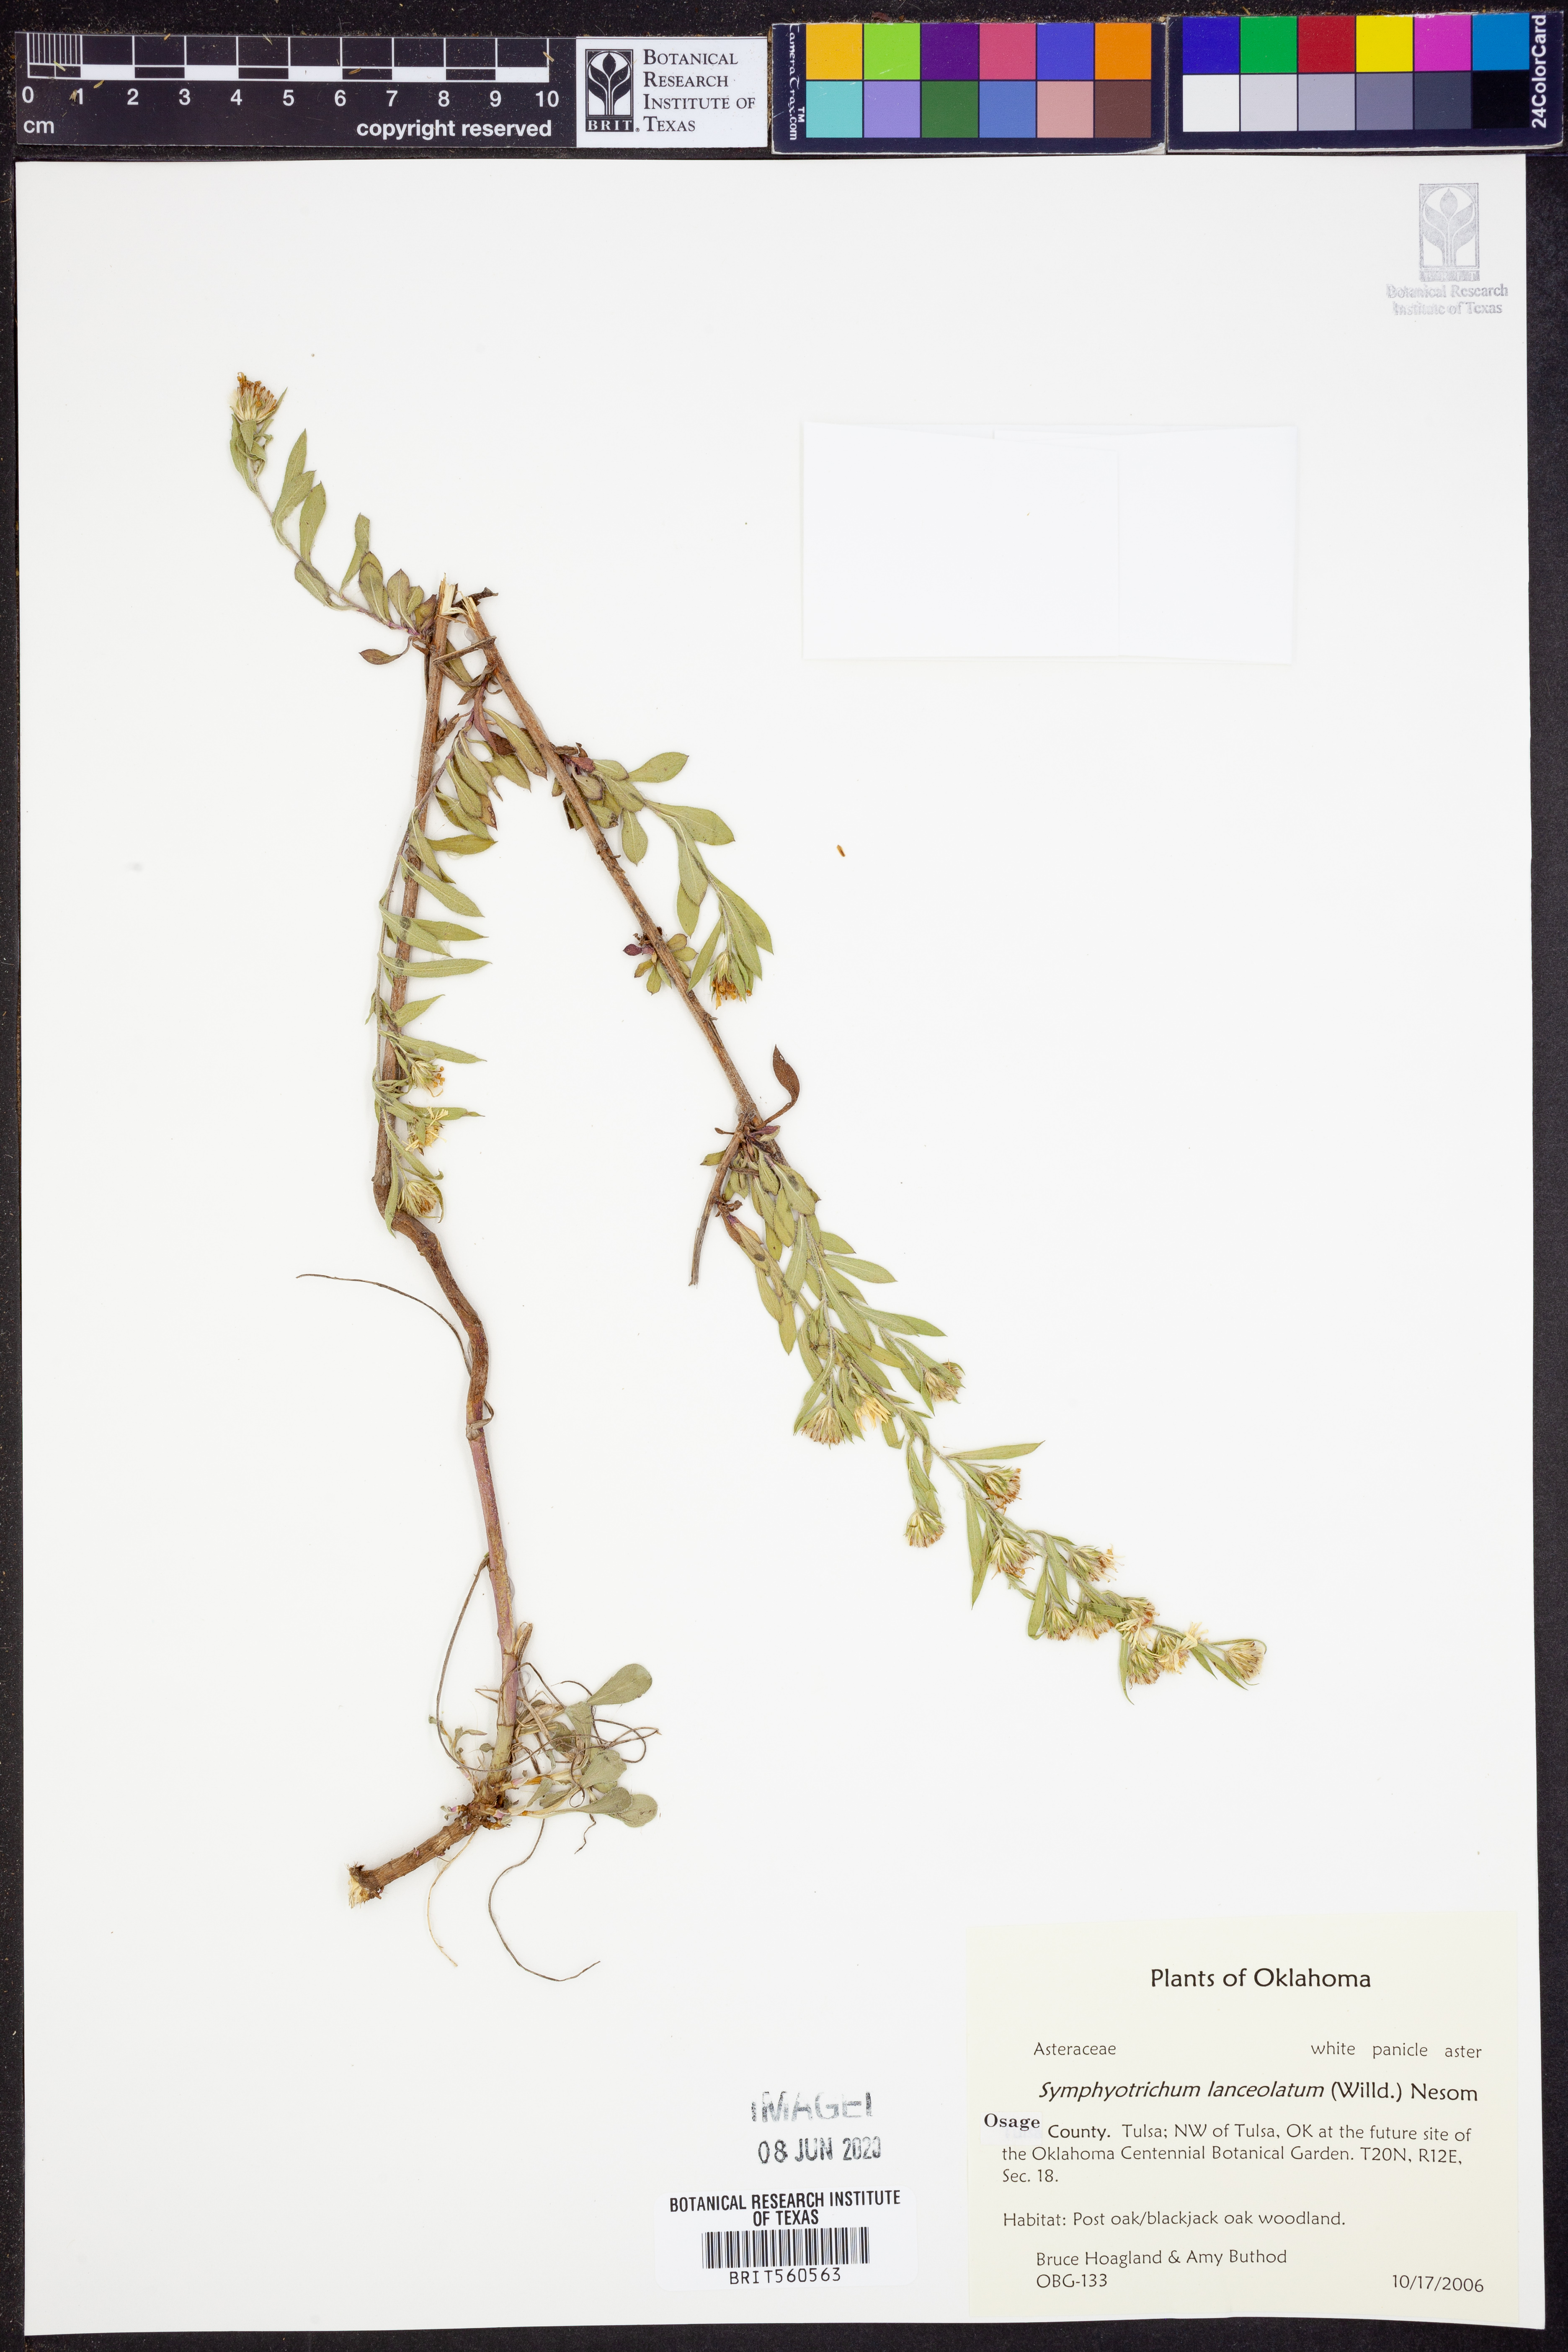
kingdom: Plantae
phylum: Tracheophyta
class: Magnoliopsida
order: Asterales
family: Asteraceae
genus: Symphyotrichum
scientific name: Symphyotrichum lanceolatum
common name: Panicled aster
